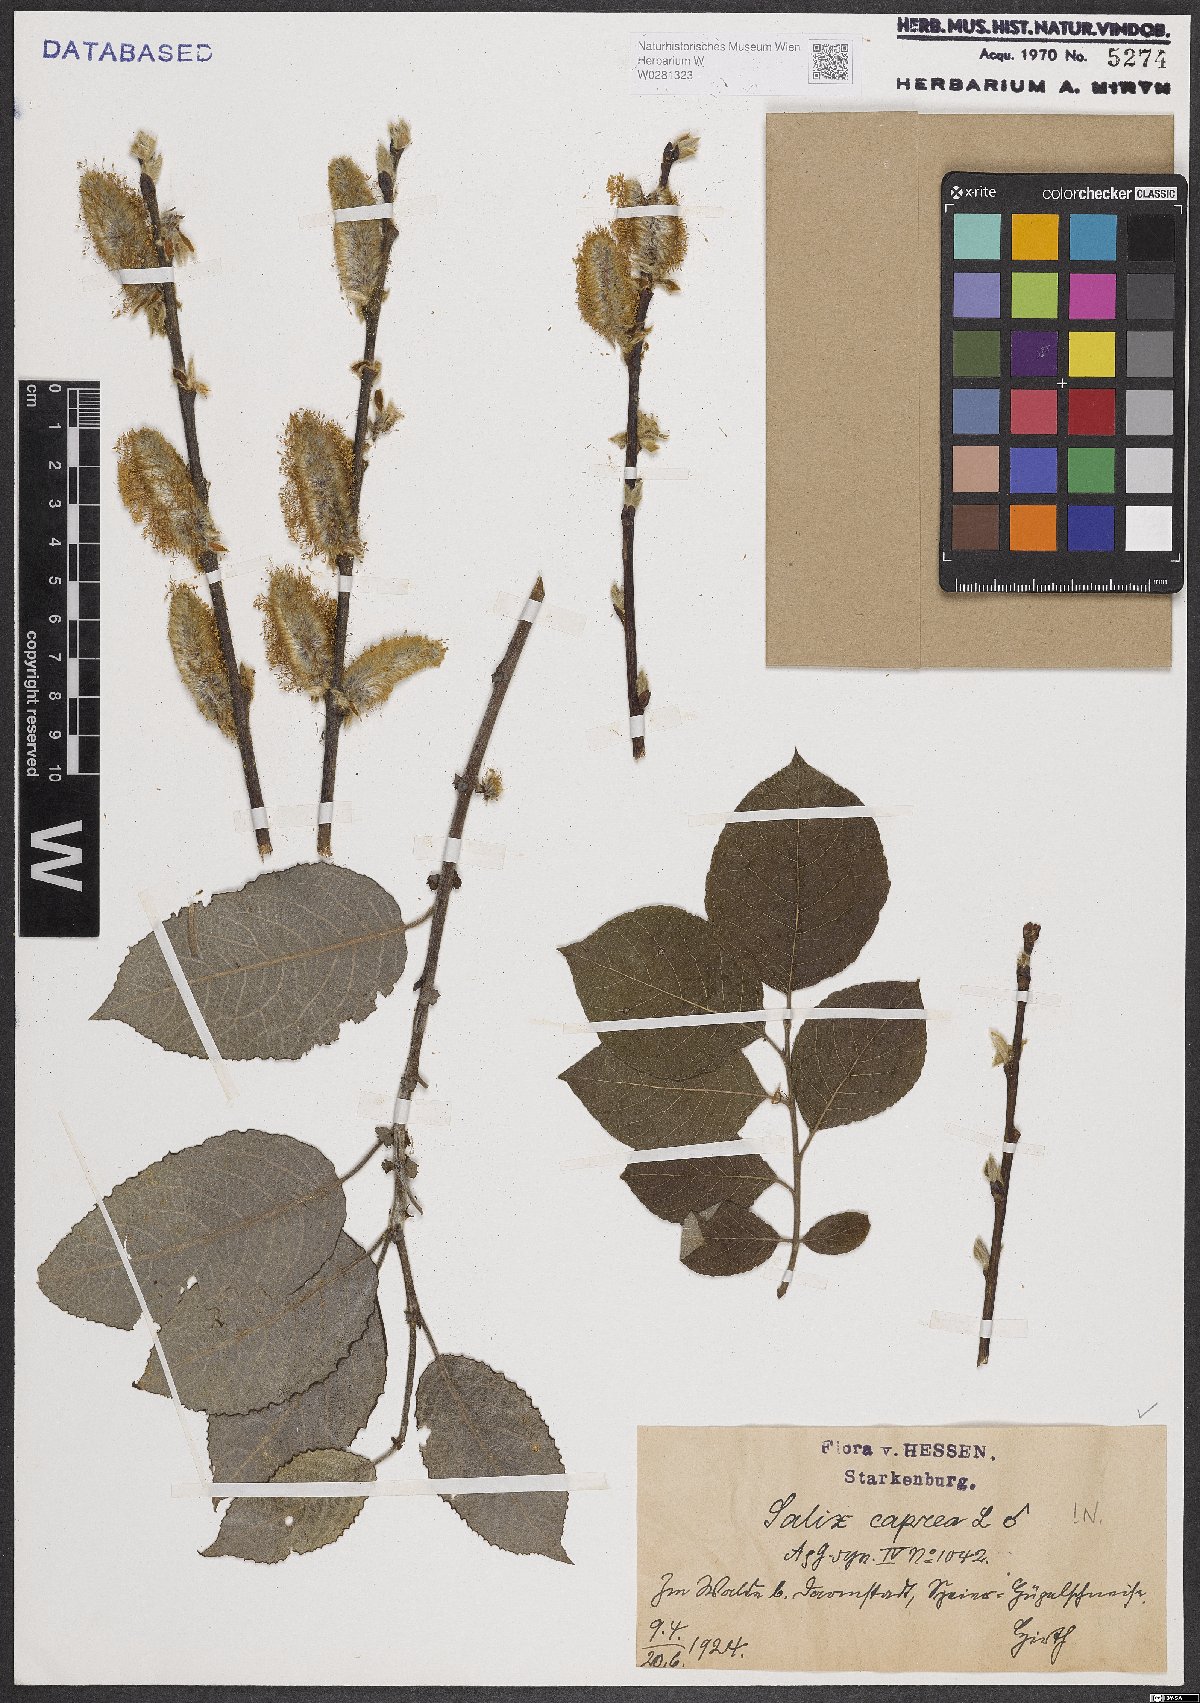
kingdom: Plantae
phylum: Tracheophyta
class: Magnoliopsida
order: Malpighiales
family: Salicaceae
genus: Salix
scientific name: Salix caprea
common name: Goat willow
